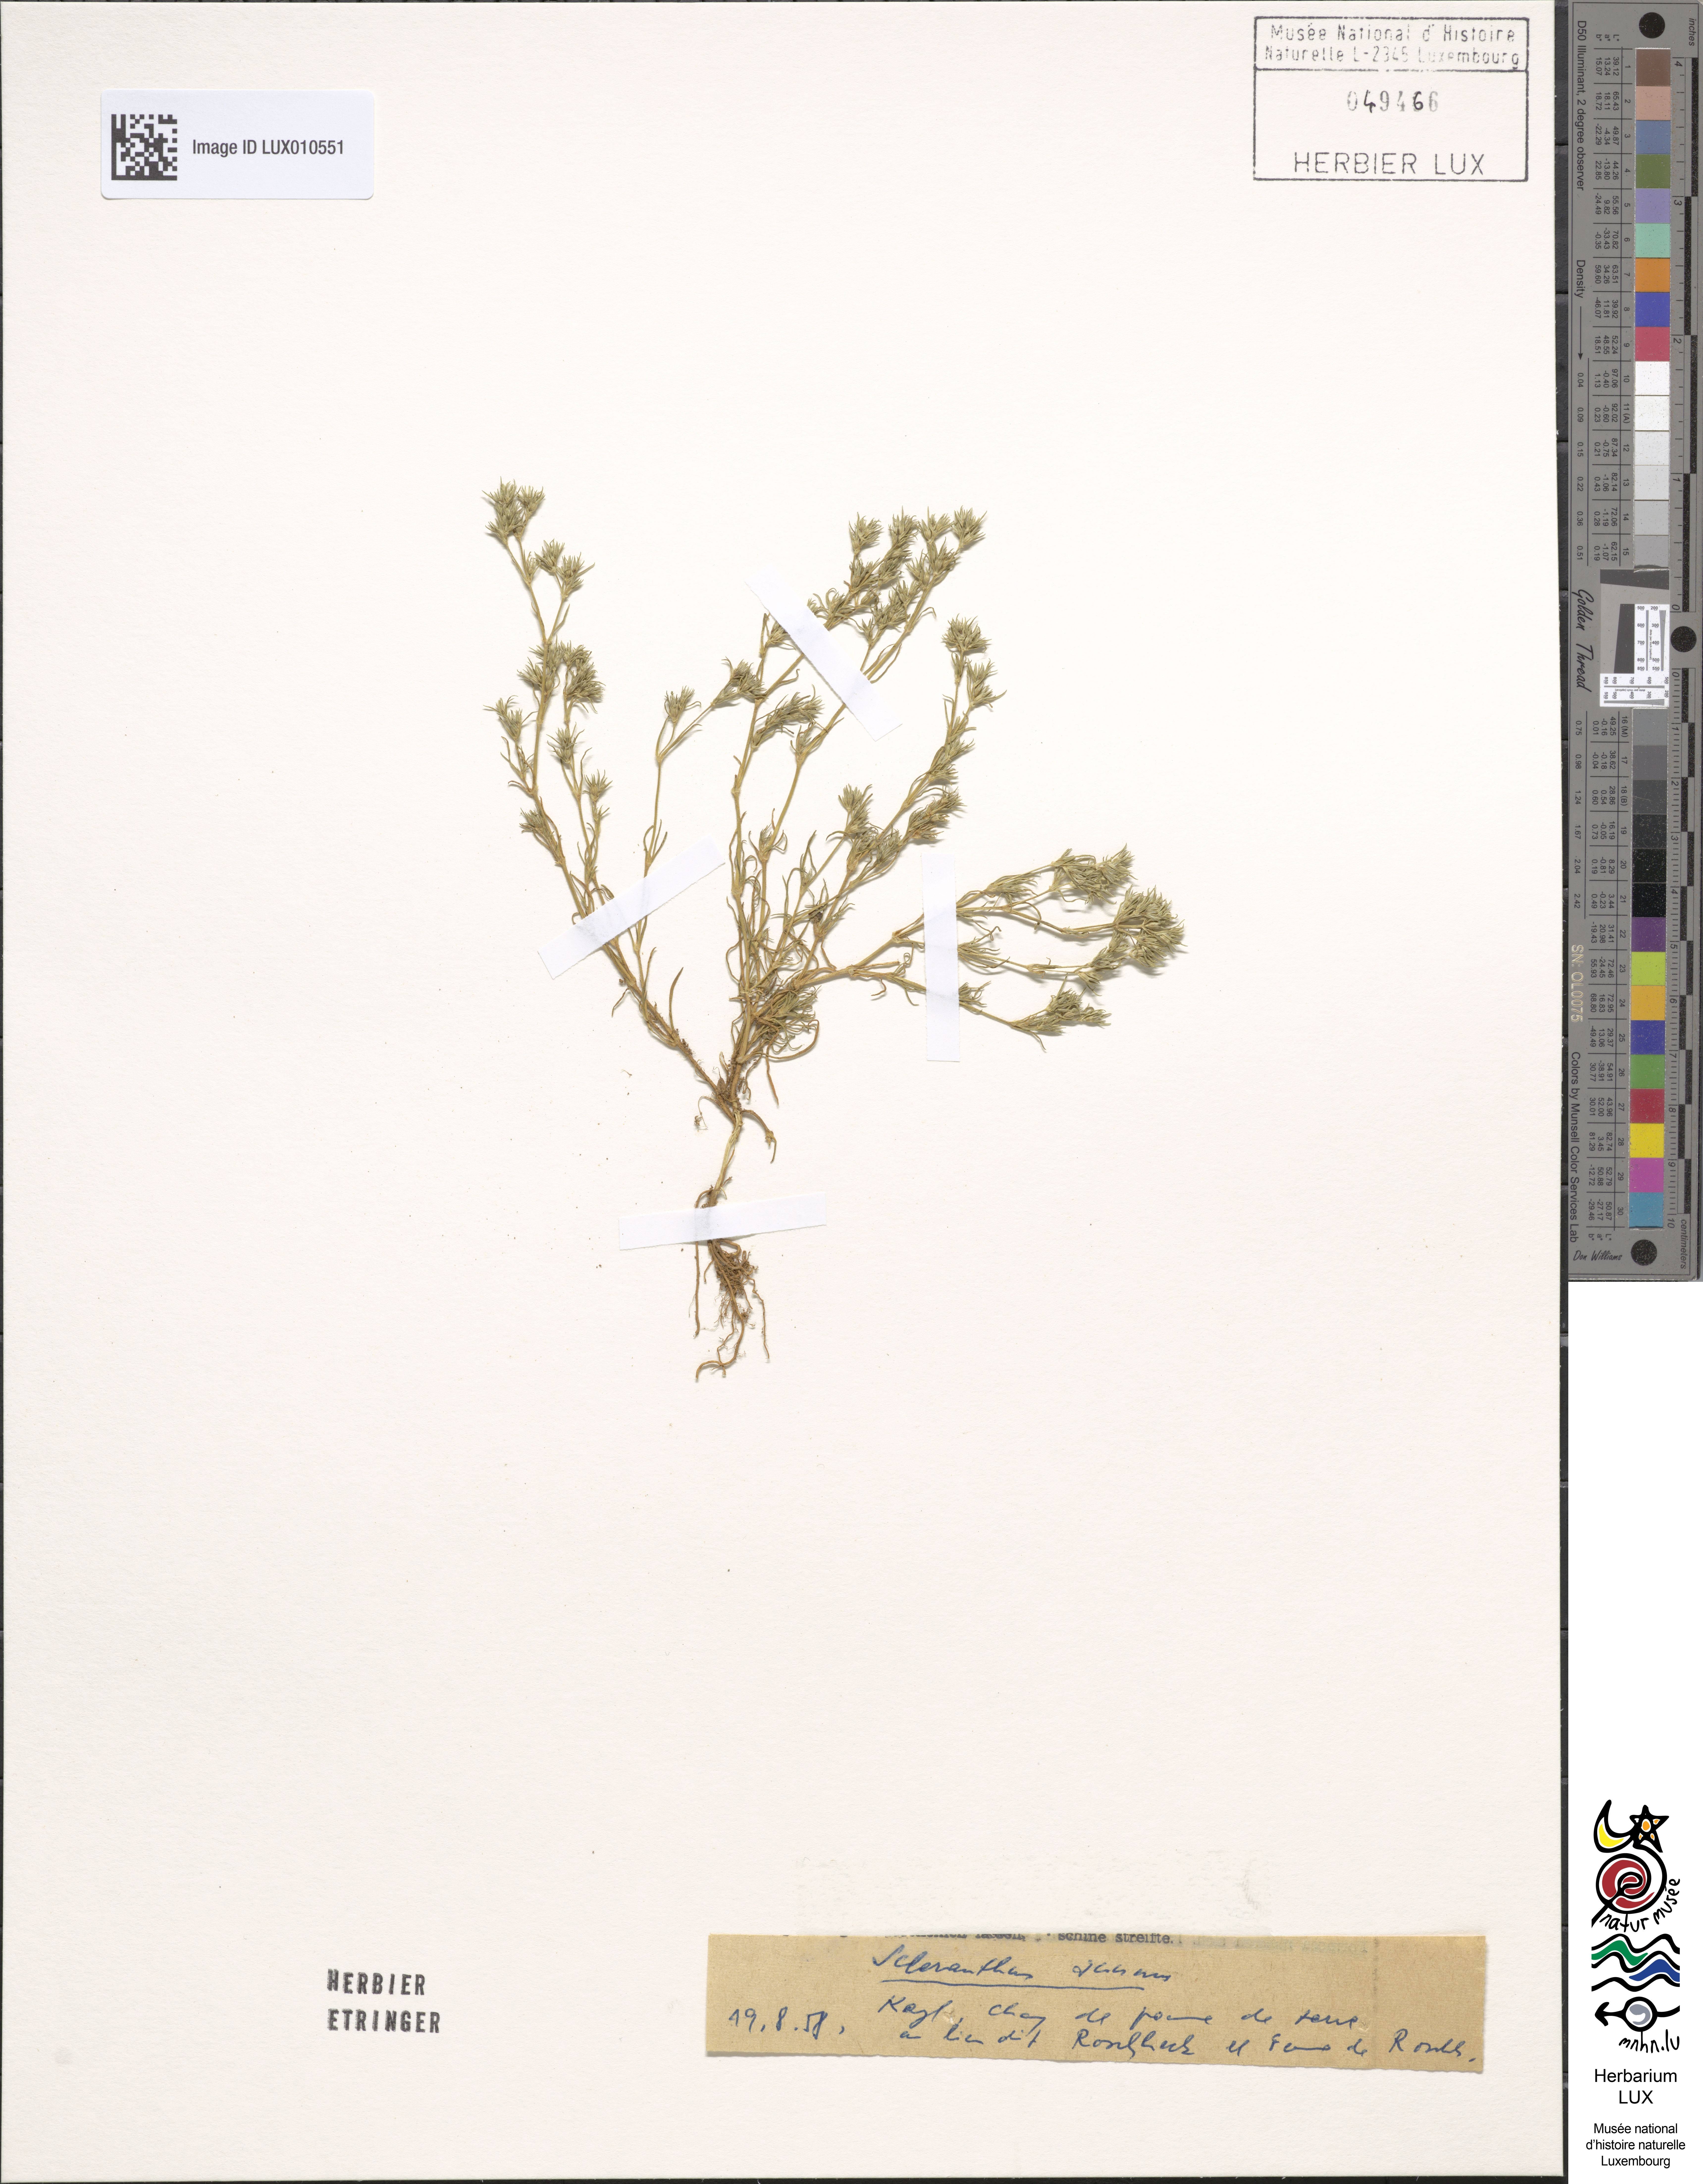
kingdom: Plantae
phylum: Tracheophyta
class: Magnoliopsida
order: Caryophyllales
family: Caryophyllaceae
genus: Scleranthus
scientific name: Scleranthus annuus
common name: Annual knawel
